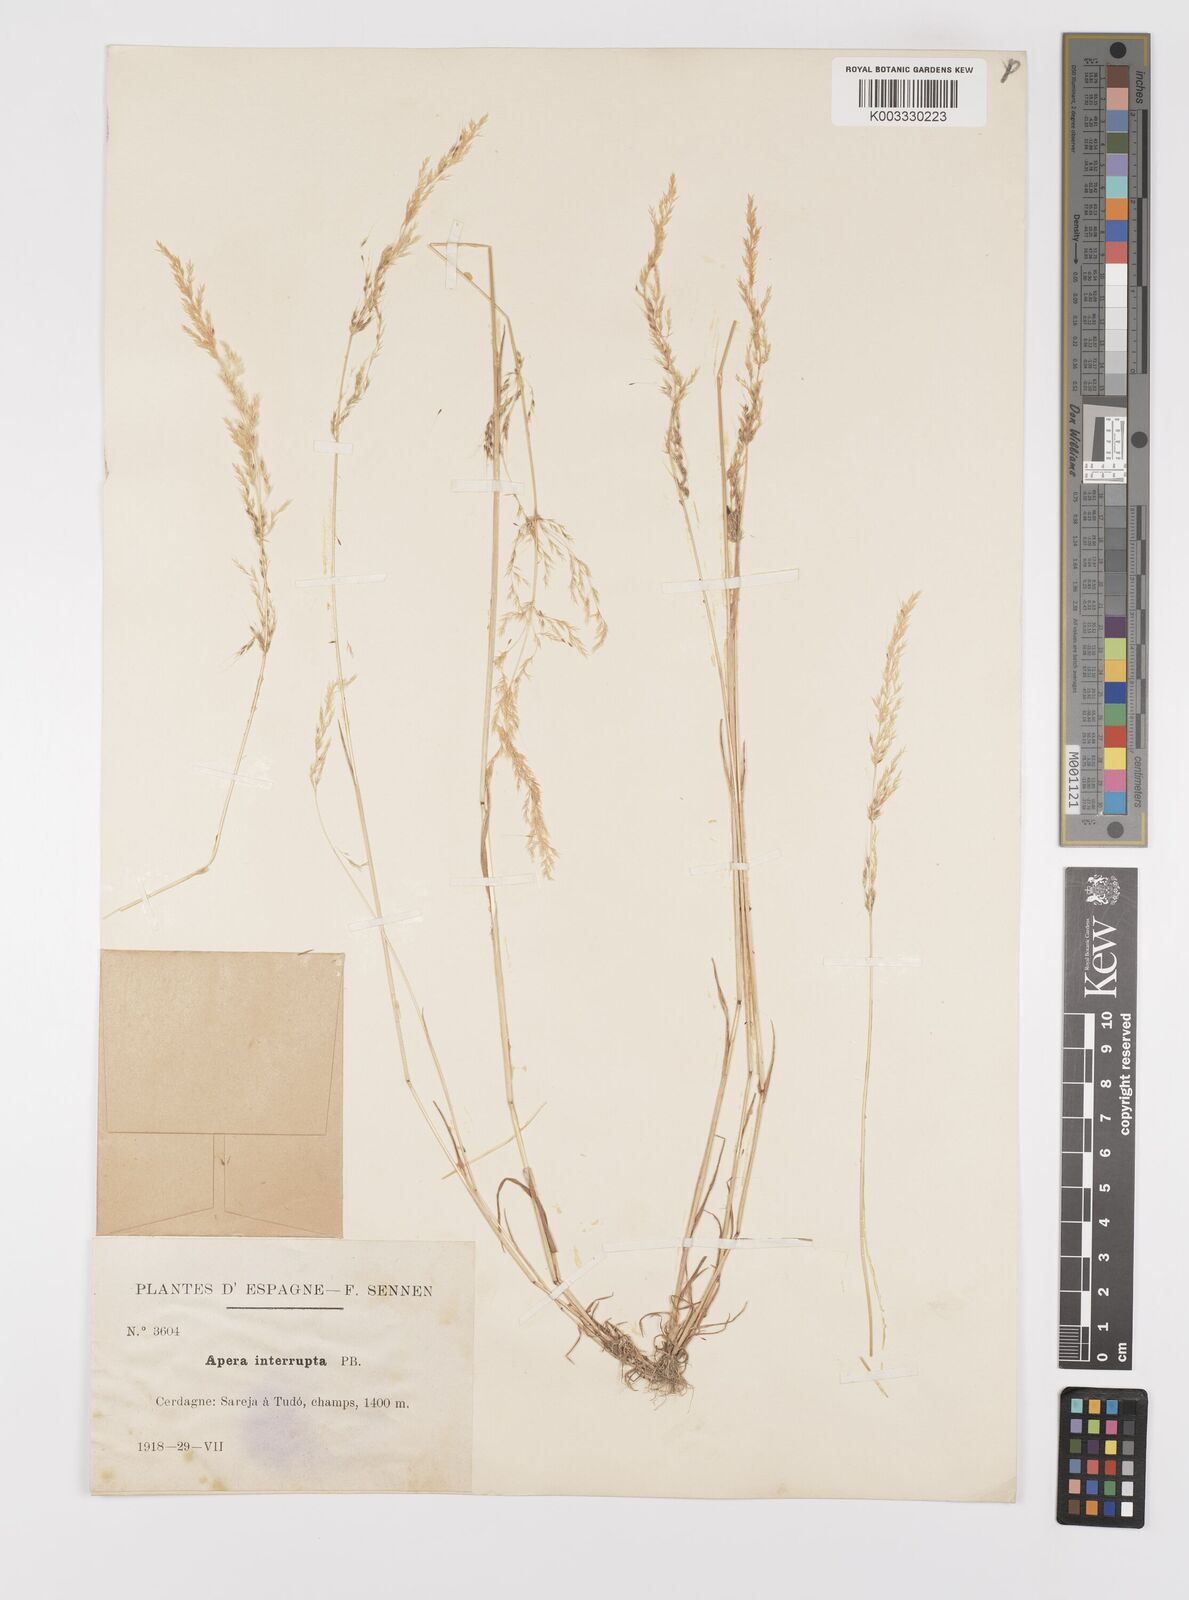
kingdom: Plantae
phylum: Tracheophyta
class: Liliopsida
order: Poales
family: Poaceae
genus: Apera
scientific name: Apera interrupta
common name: Dense silky-bent
